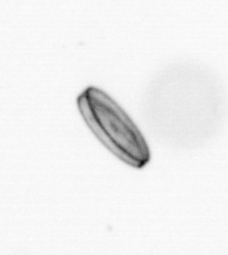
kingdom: Chromista
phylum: Ochrophyta
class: Bacillariophyceae
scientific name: Bacillariophyceae
